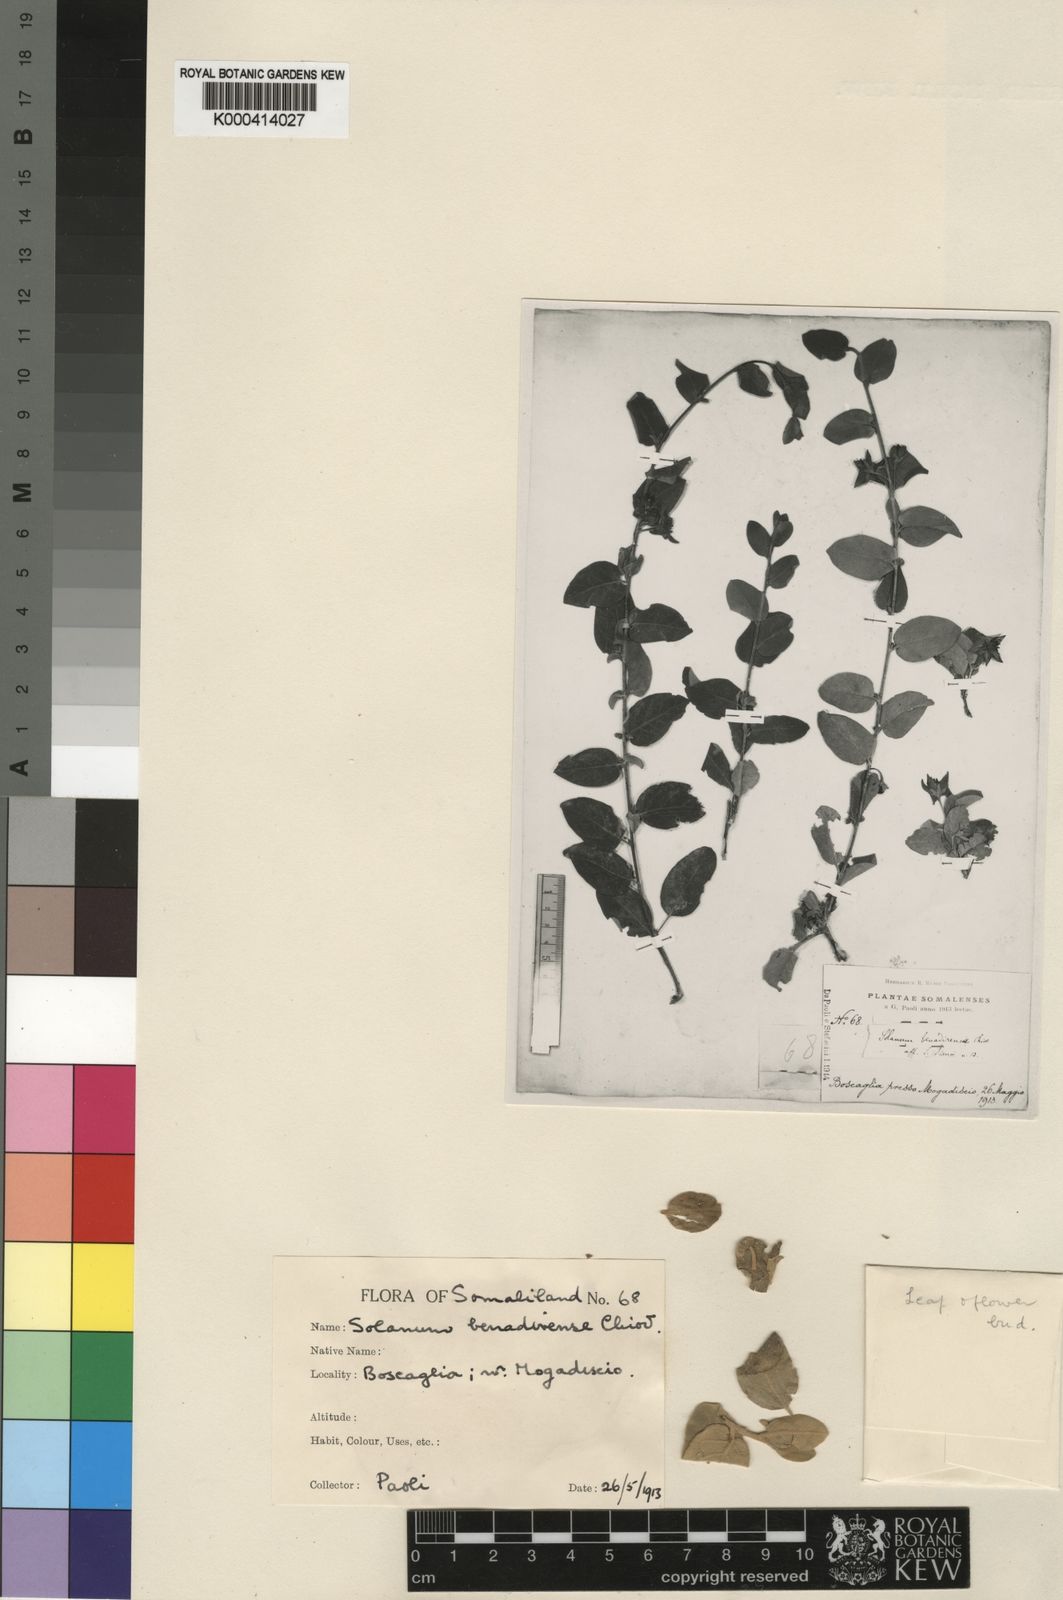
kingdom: Plantae
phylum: Tracheophyta
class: Magnoliopsida
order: Solanales
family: Solanaceae
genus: Solanum
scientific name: Solanum pampaninii
